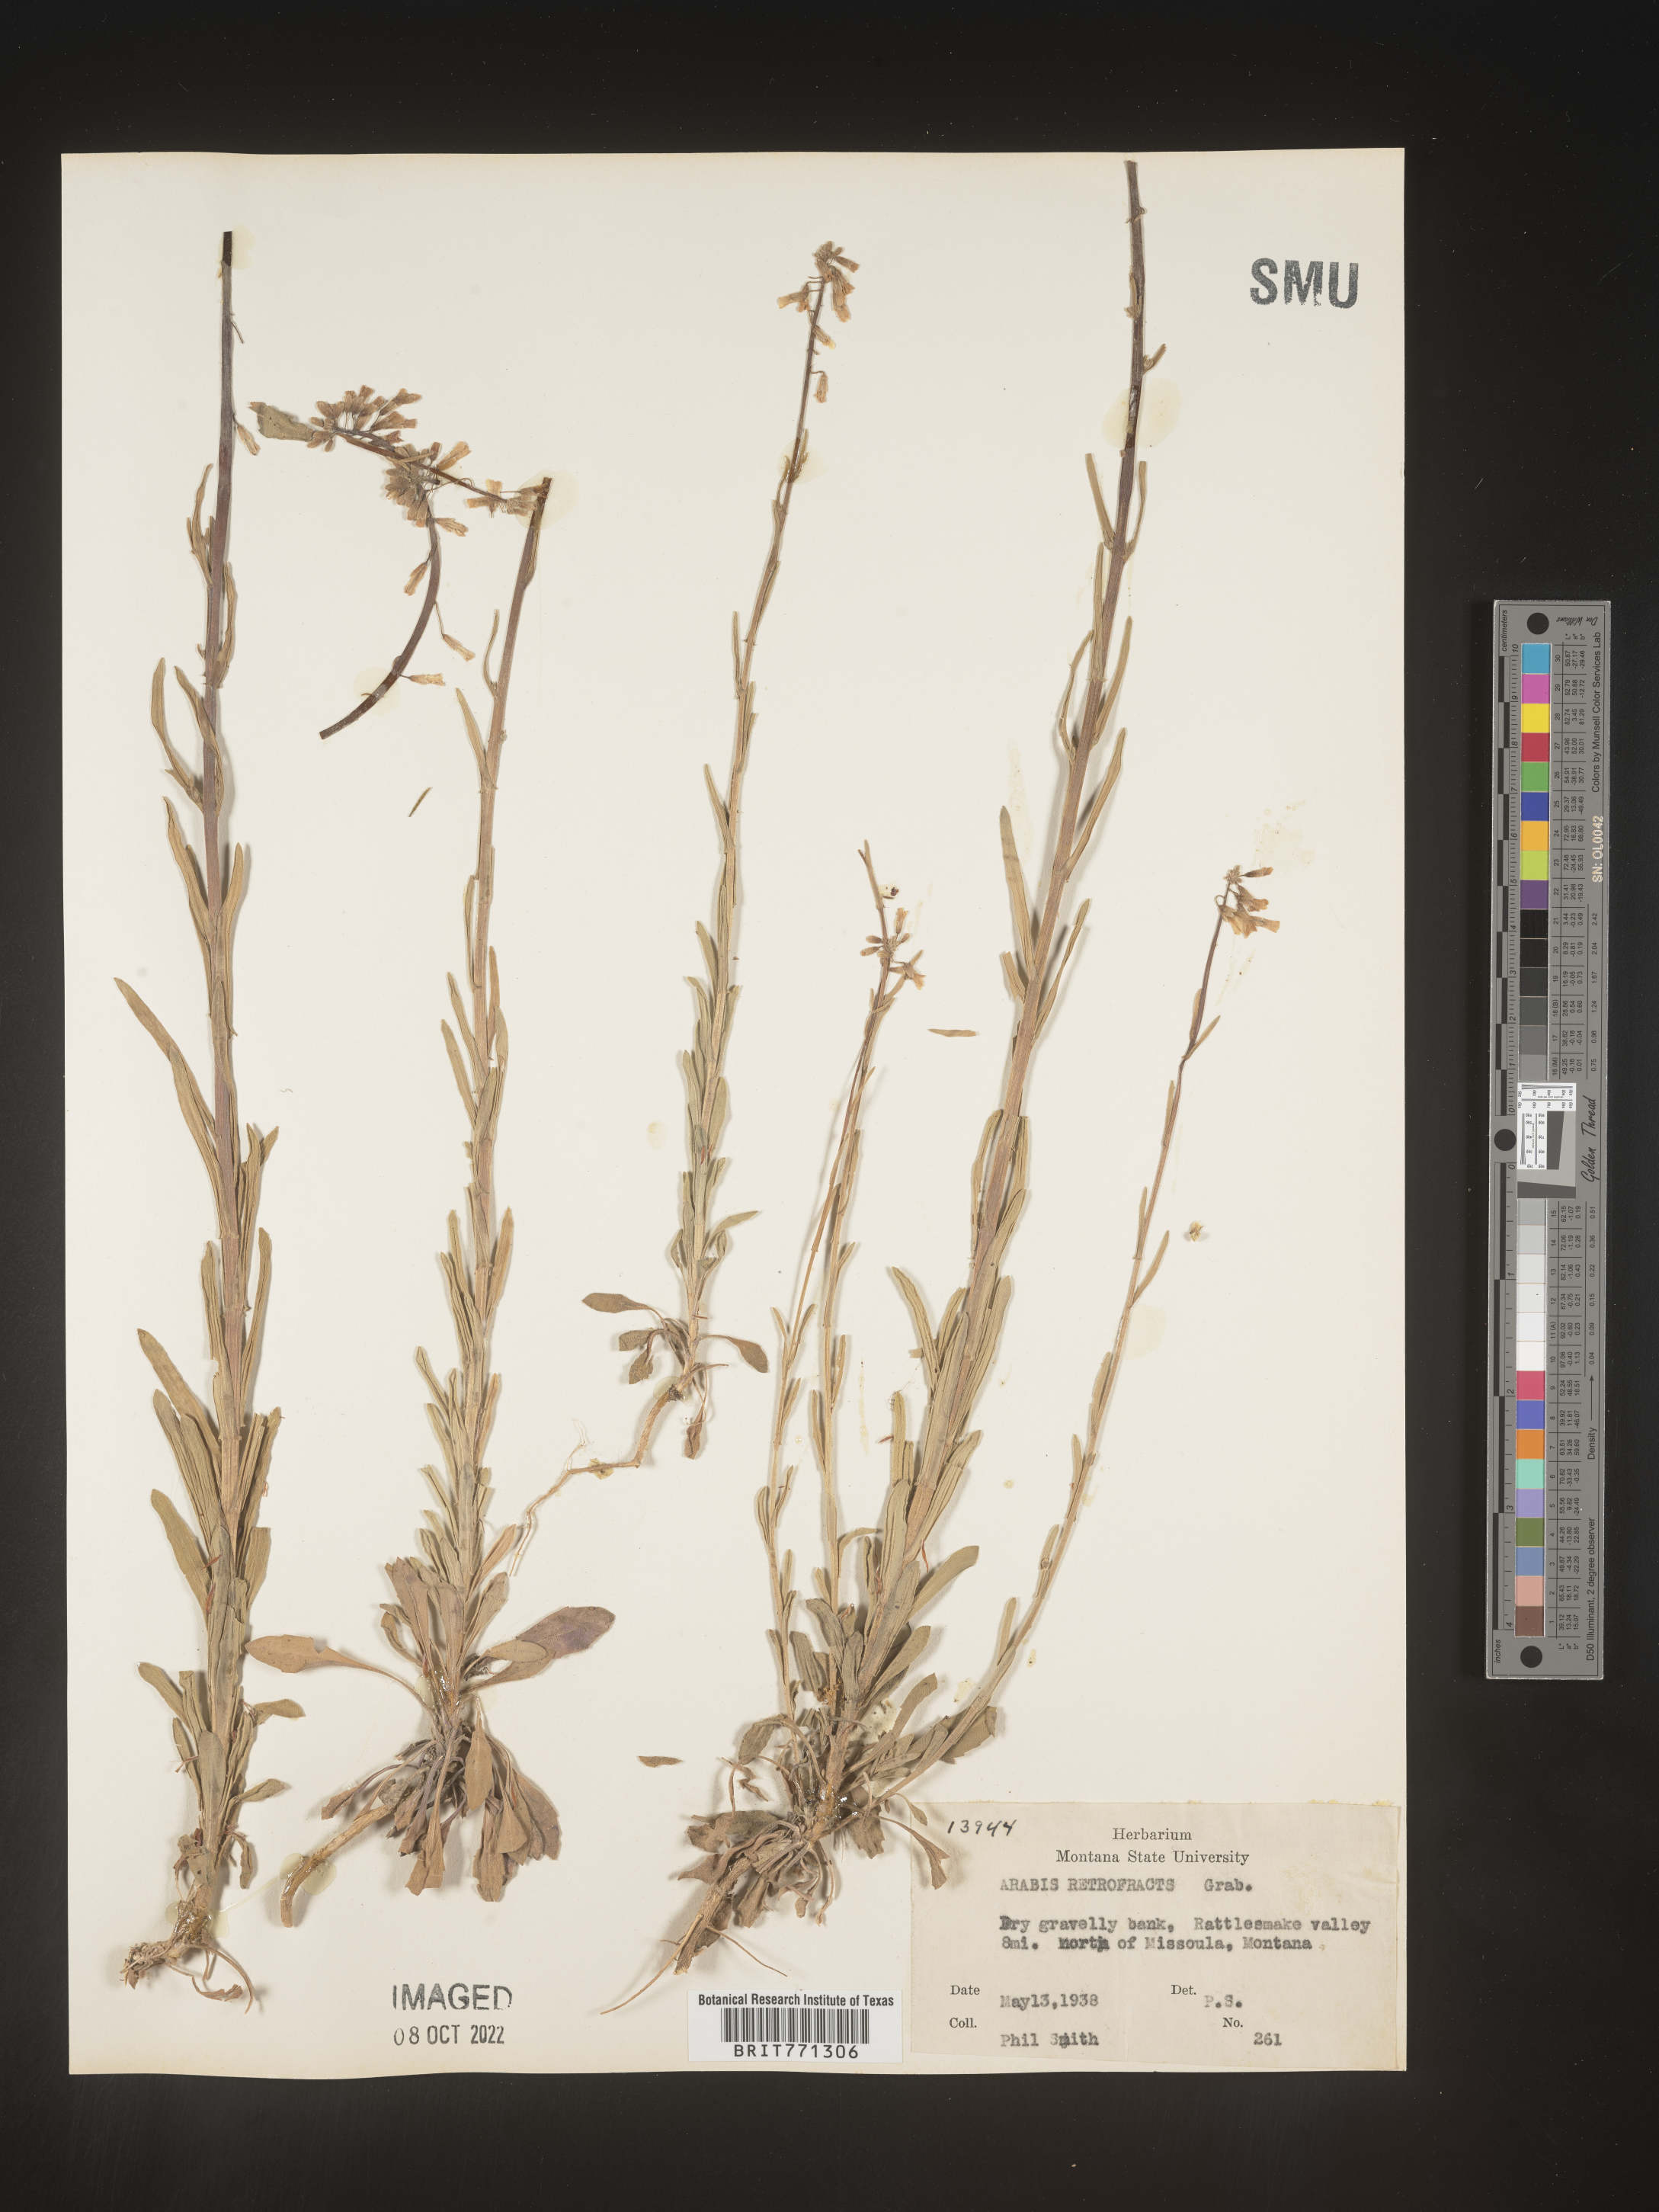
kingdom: Plantae
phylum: Tracheophyta
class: Magnoliopsida
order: Brassicales
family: Brassicaceae
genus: Arabis
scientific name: Arabis
